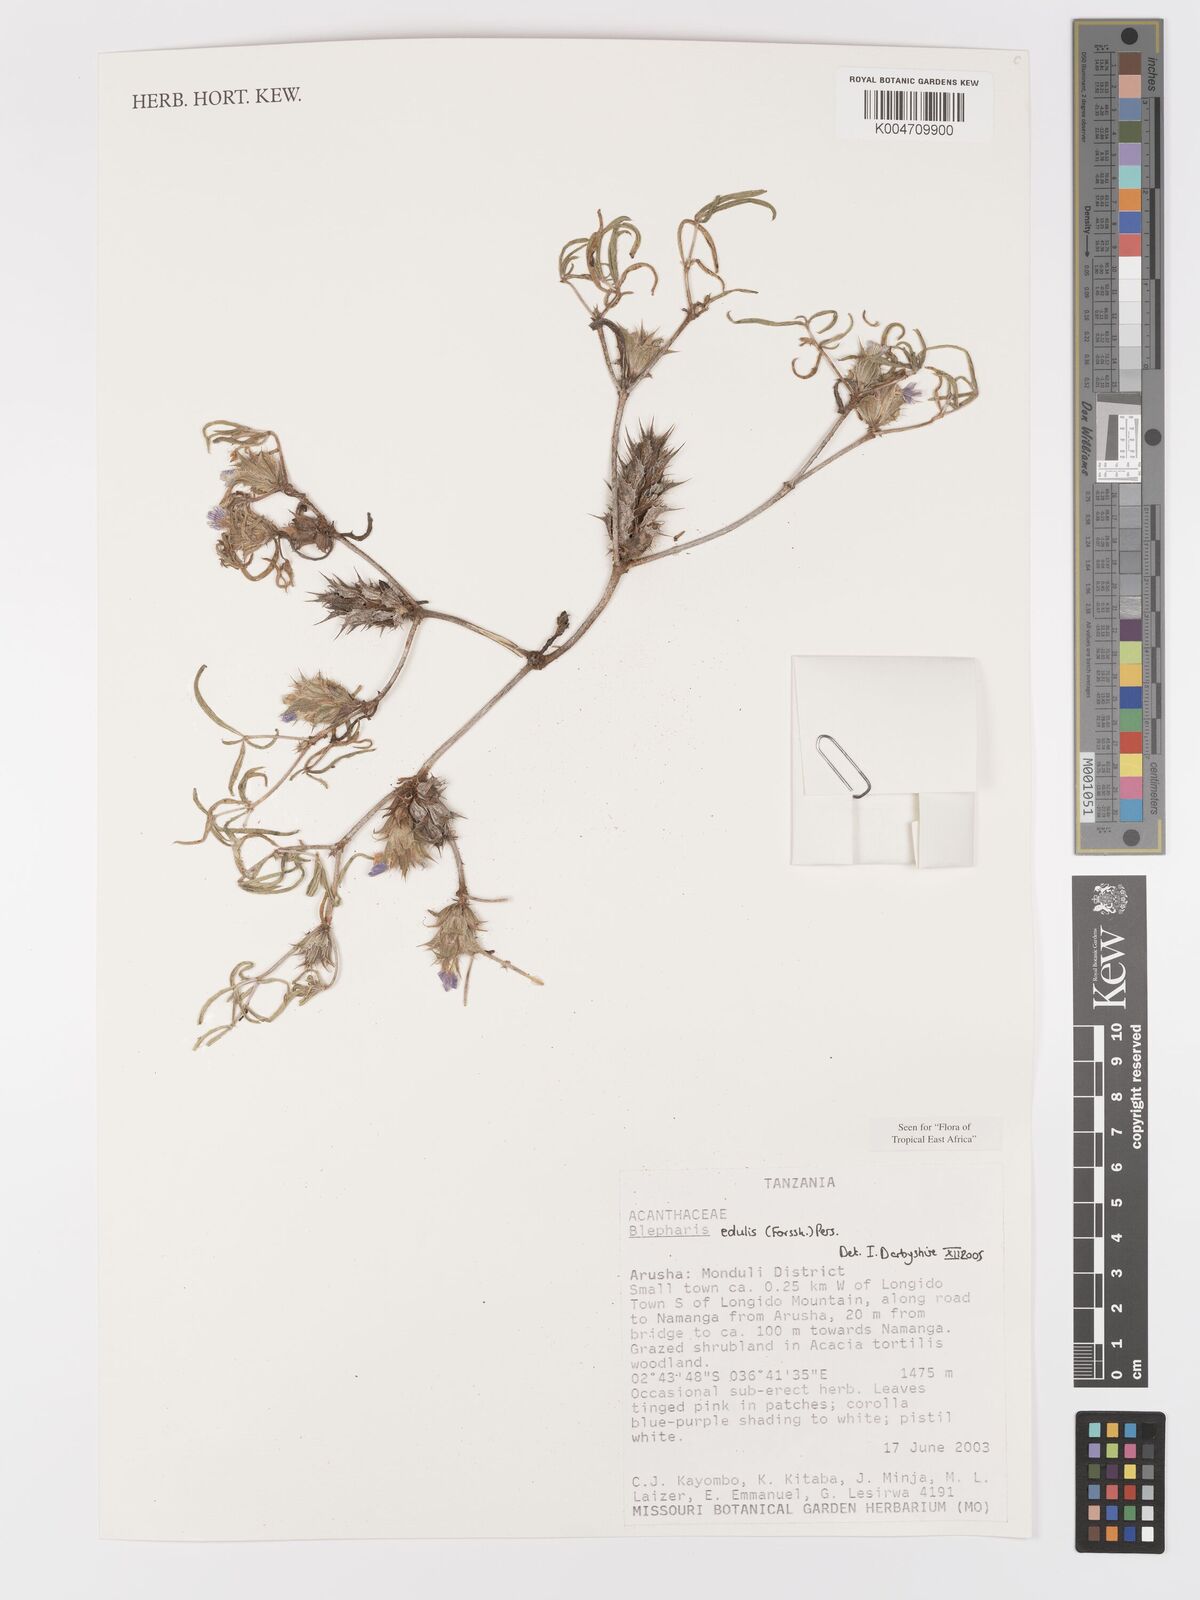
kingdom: Plantae
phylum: Tracheophyta
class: Magnoliopsida
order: Lamiales
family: Acanthaceae
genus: Blepharis
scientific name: Blepharis edulis
